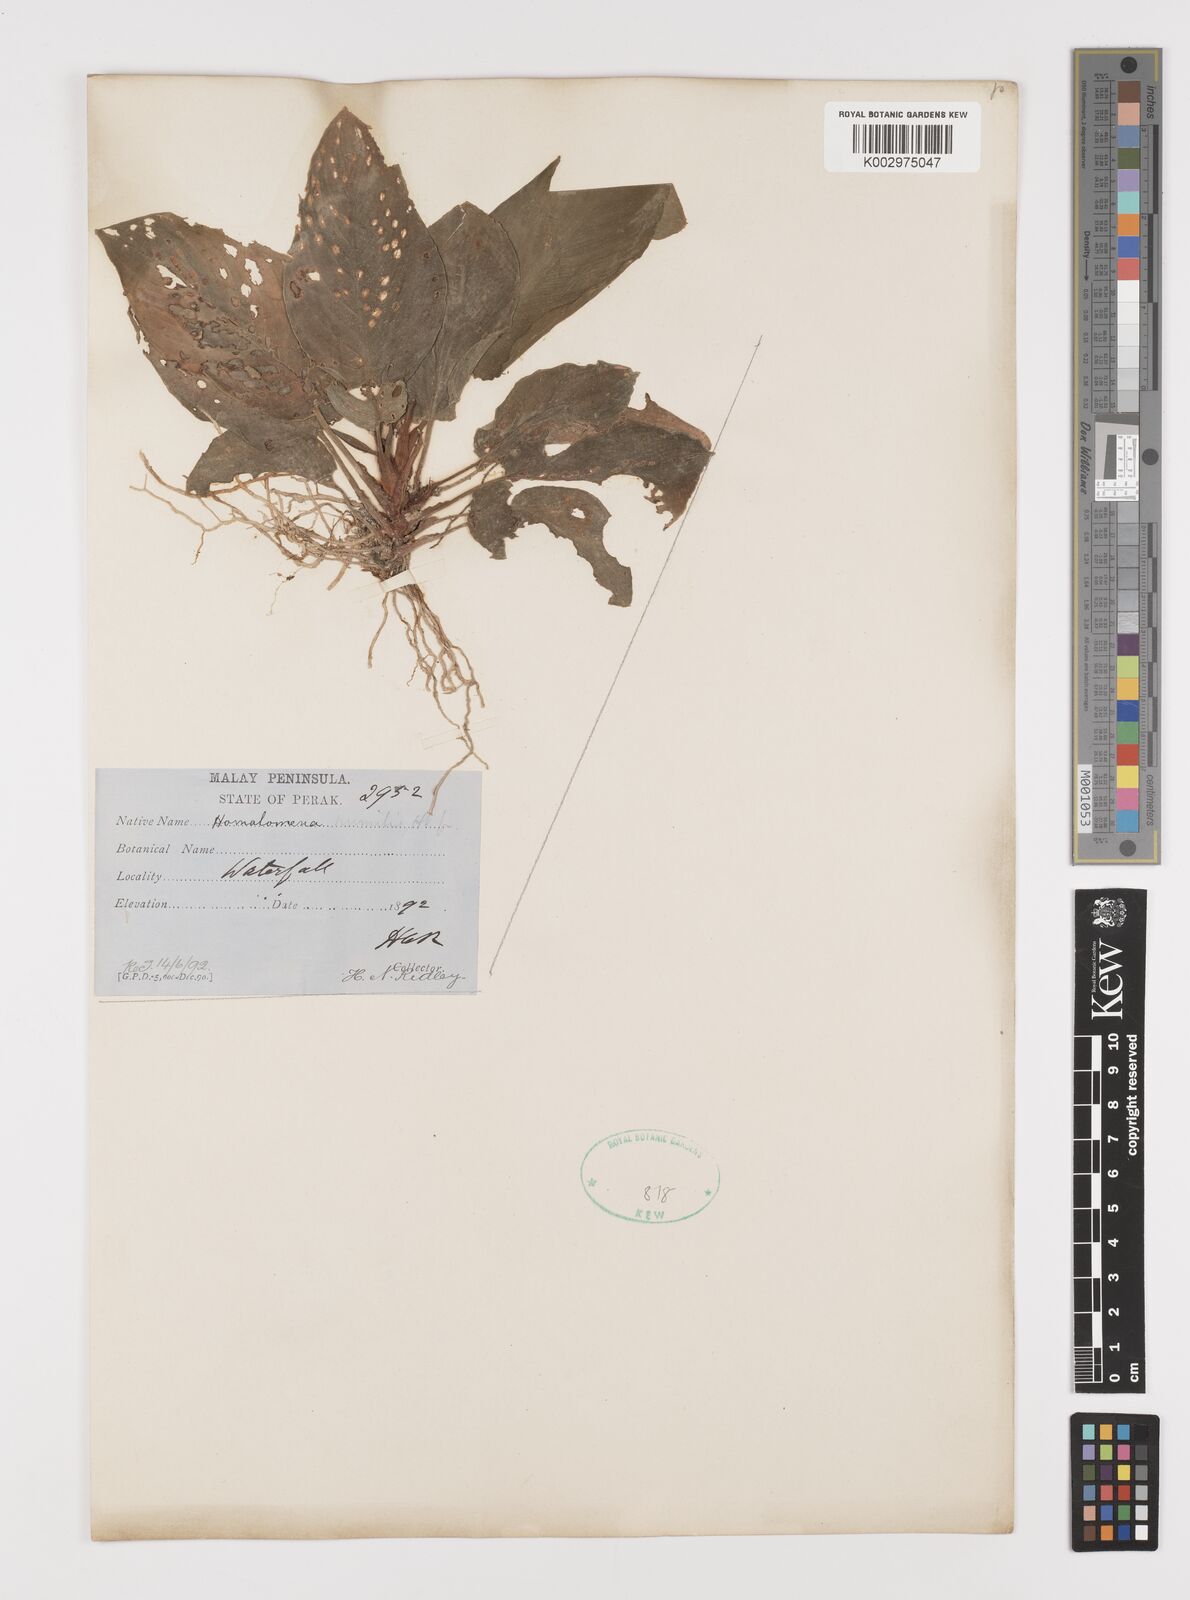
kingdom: Plantae
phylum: Tracheophyta
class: Liliopsida
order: Alismatales
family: Araceae
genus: Homalomena
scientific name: Homalomena humilis
